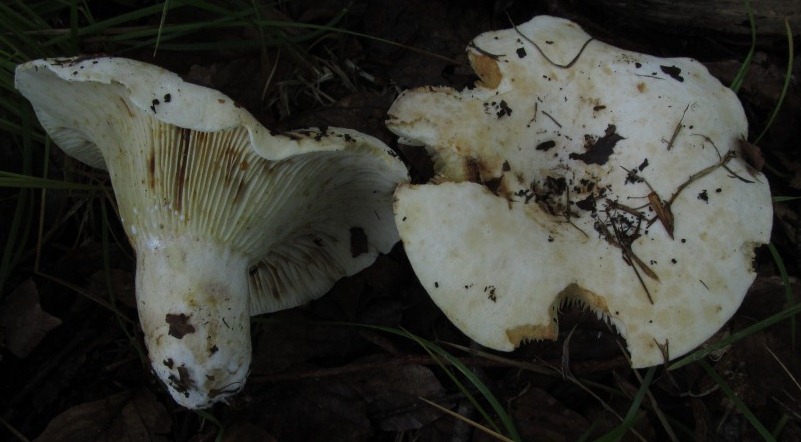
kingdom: Fungi
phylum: Basidiomycota
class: Agaricomycetes
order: Russulales
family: Russulaceae
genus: Lactifluus
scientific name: Lactifluus vellereus
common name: hvidfiltet mælkehat
